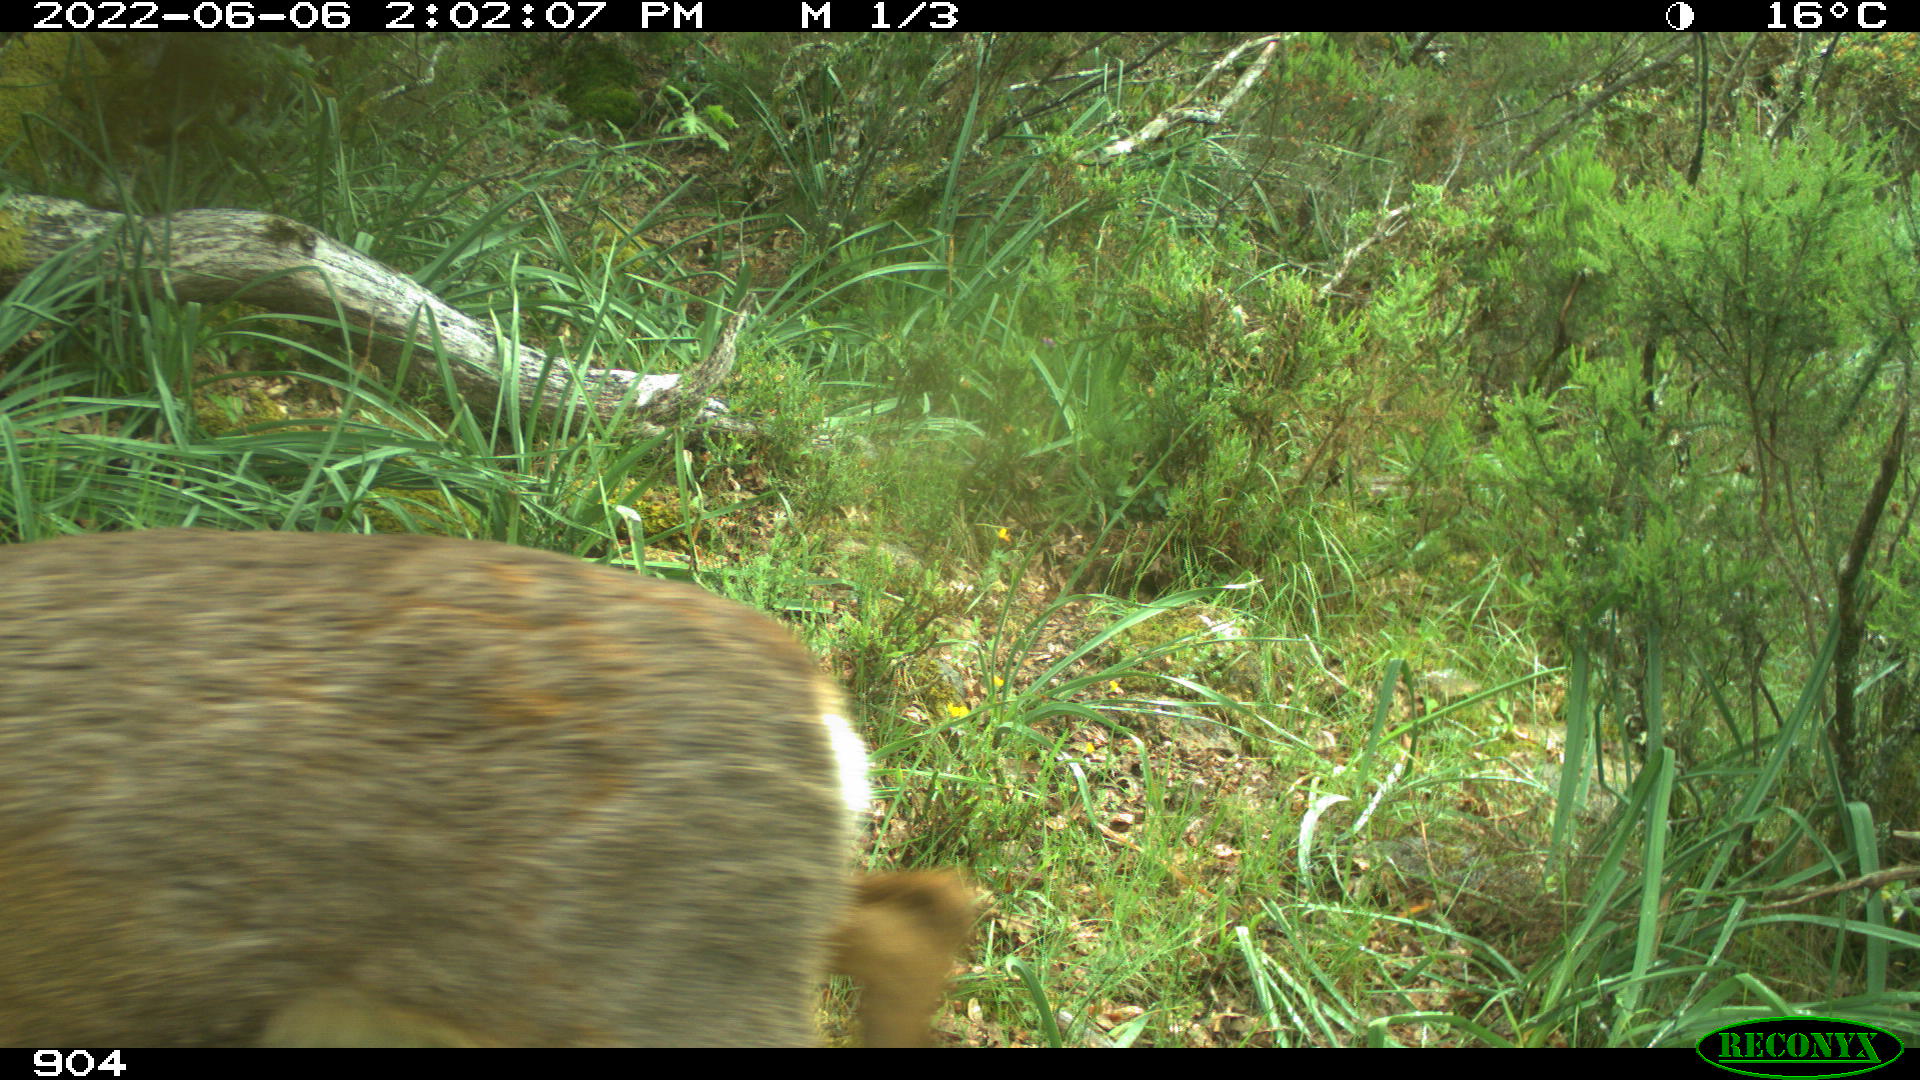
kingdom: Animalia
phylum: Chordata
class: Mammalia
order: Artiodactyla
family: Cervidae
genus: Capreolus
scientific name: Capreolus capreolus
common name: Western roe deer
